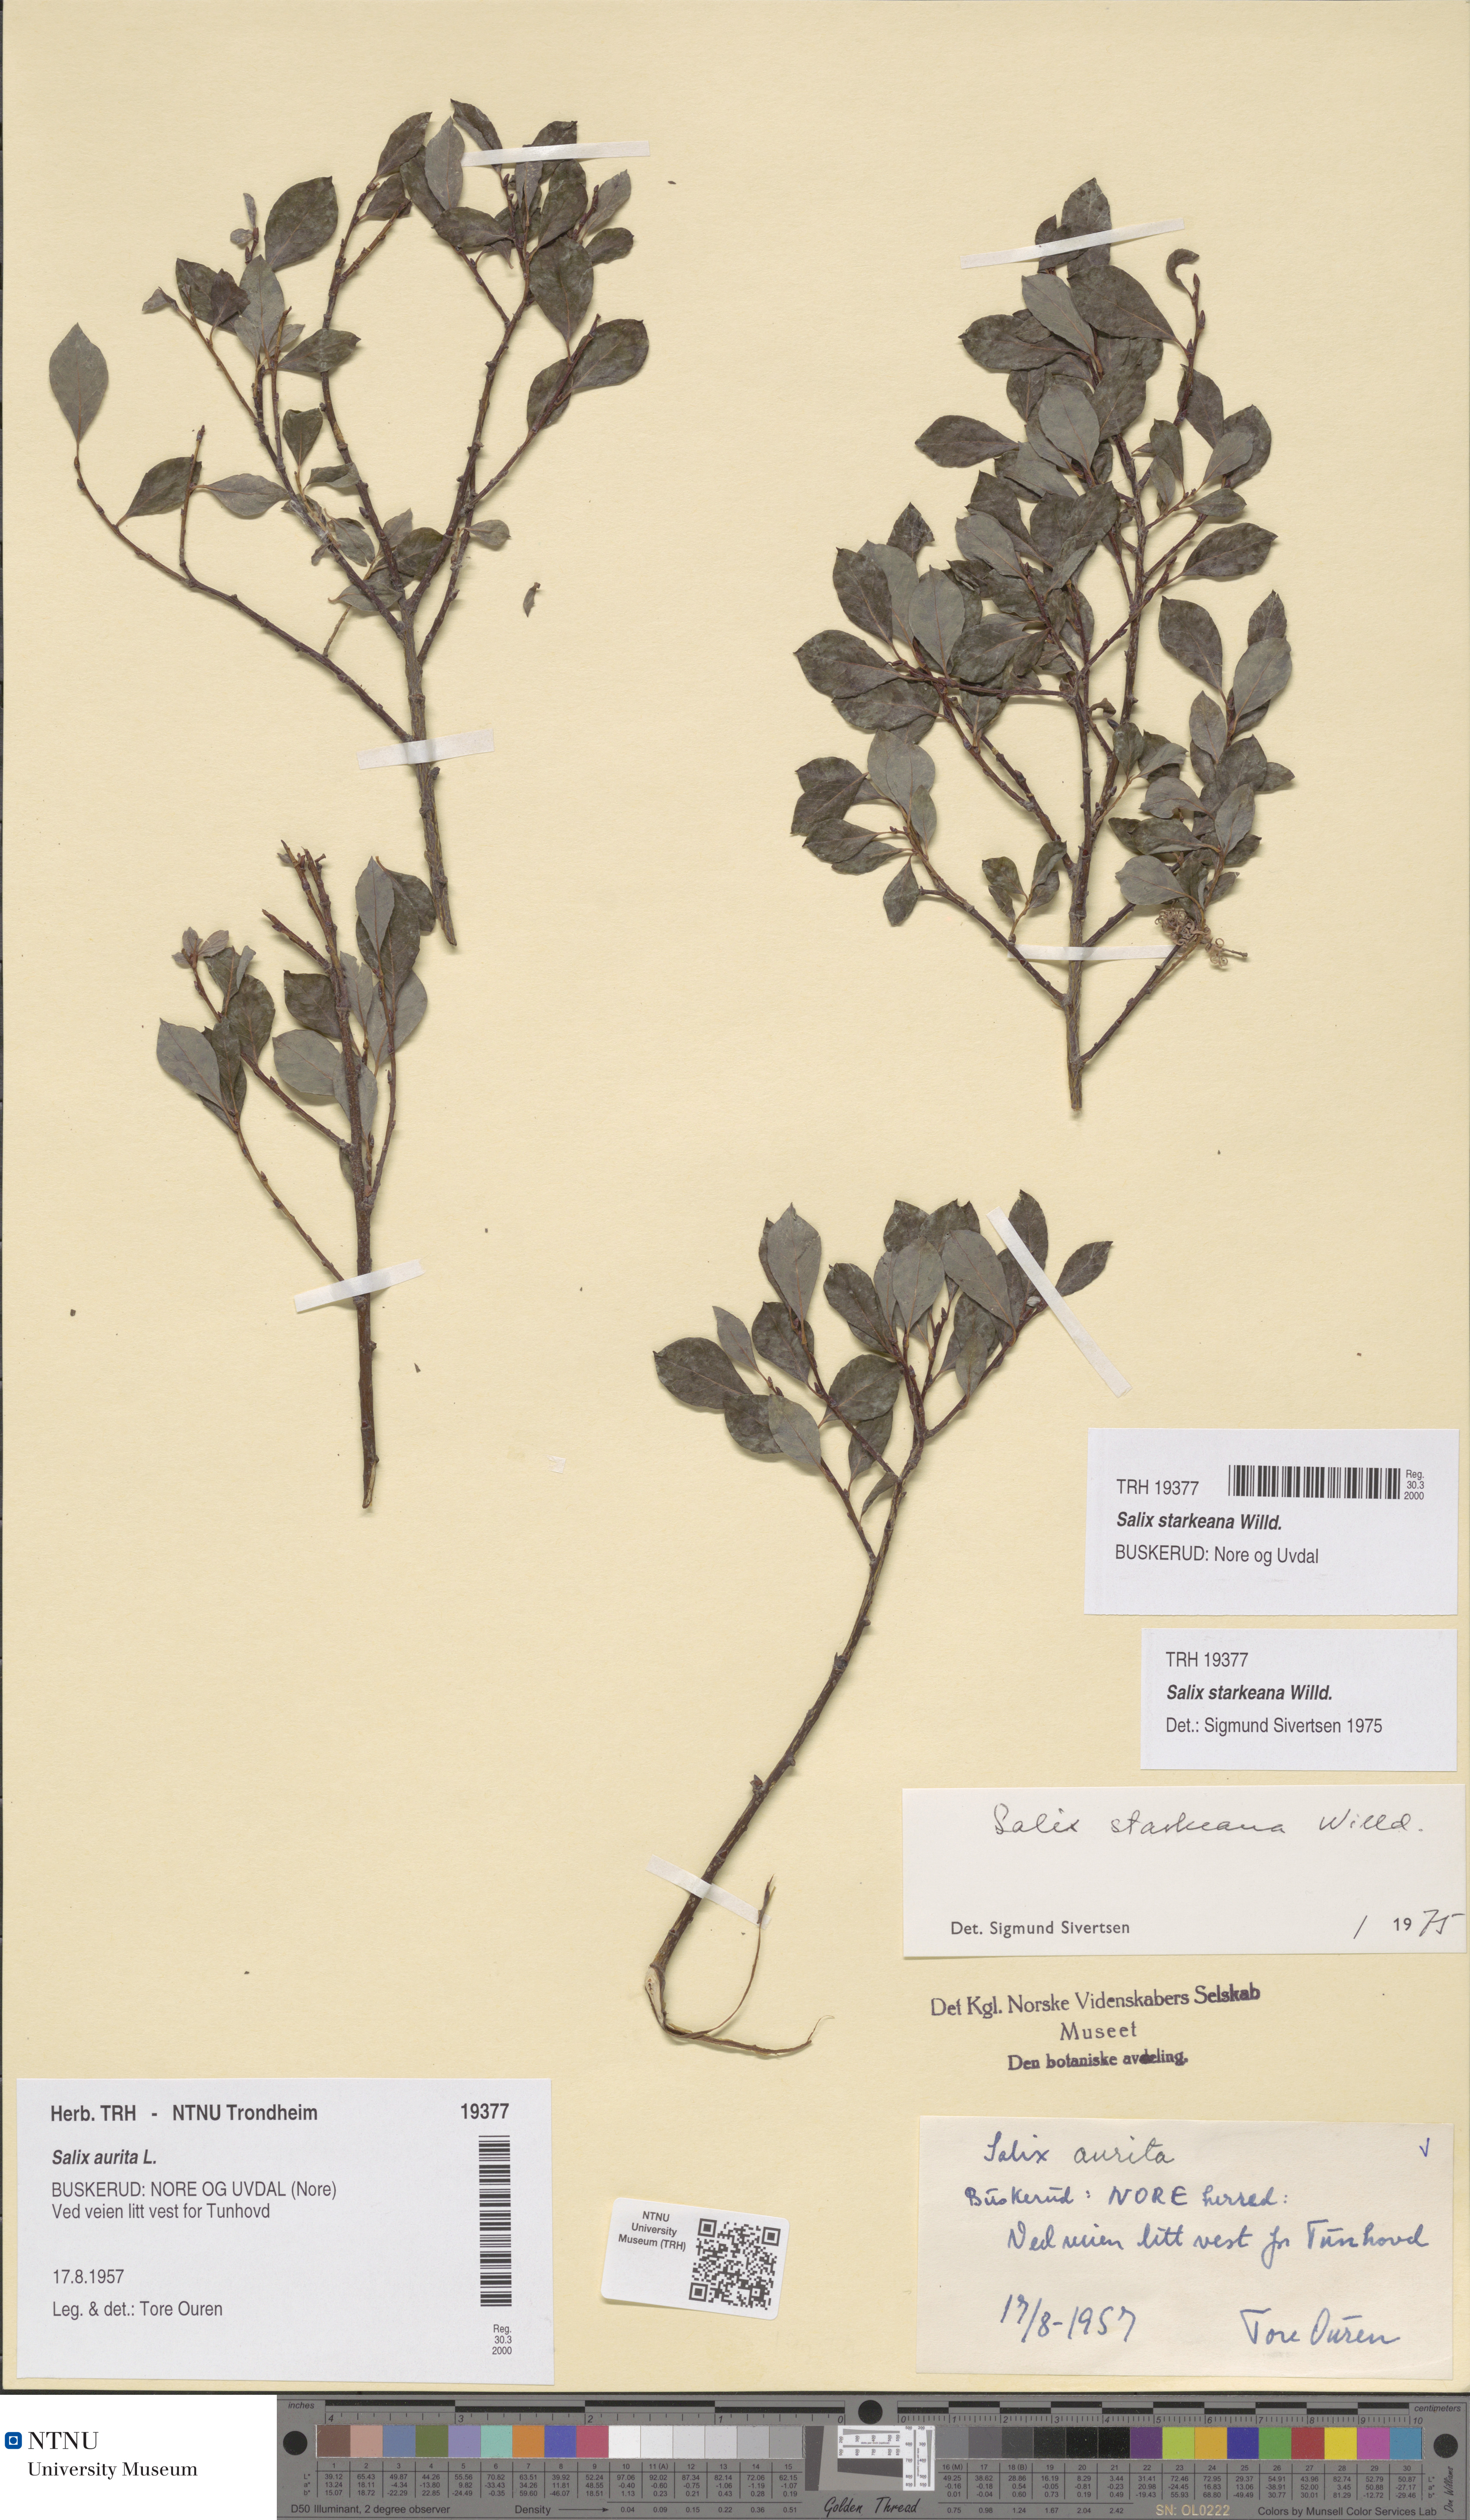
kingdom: Plantae
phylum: Tracheophyta
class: Magnoliopsida
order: Malpighiales
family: Salicaceae
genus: Salix
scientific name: Salix starkeana
